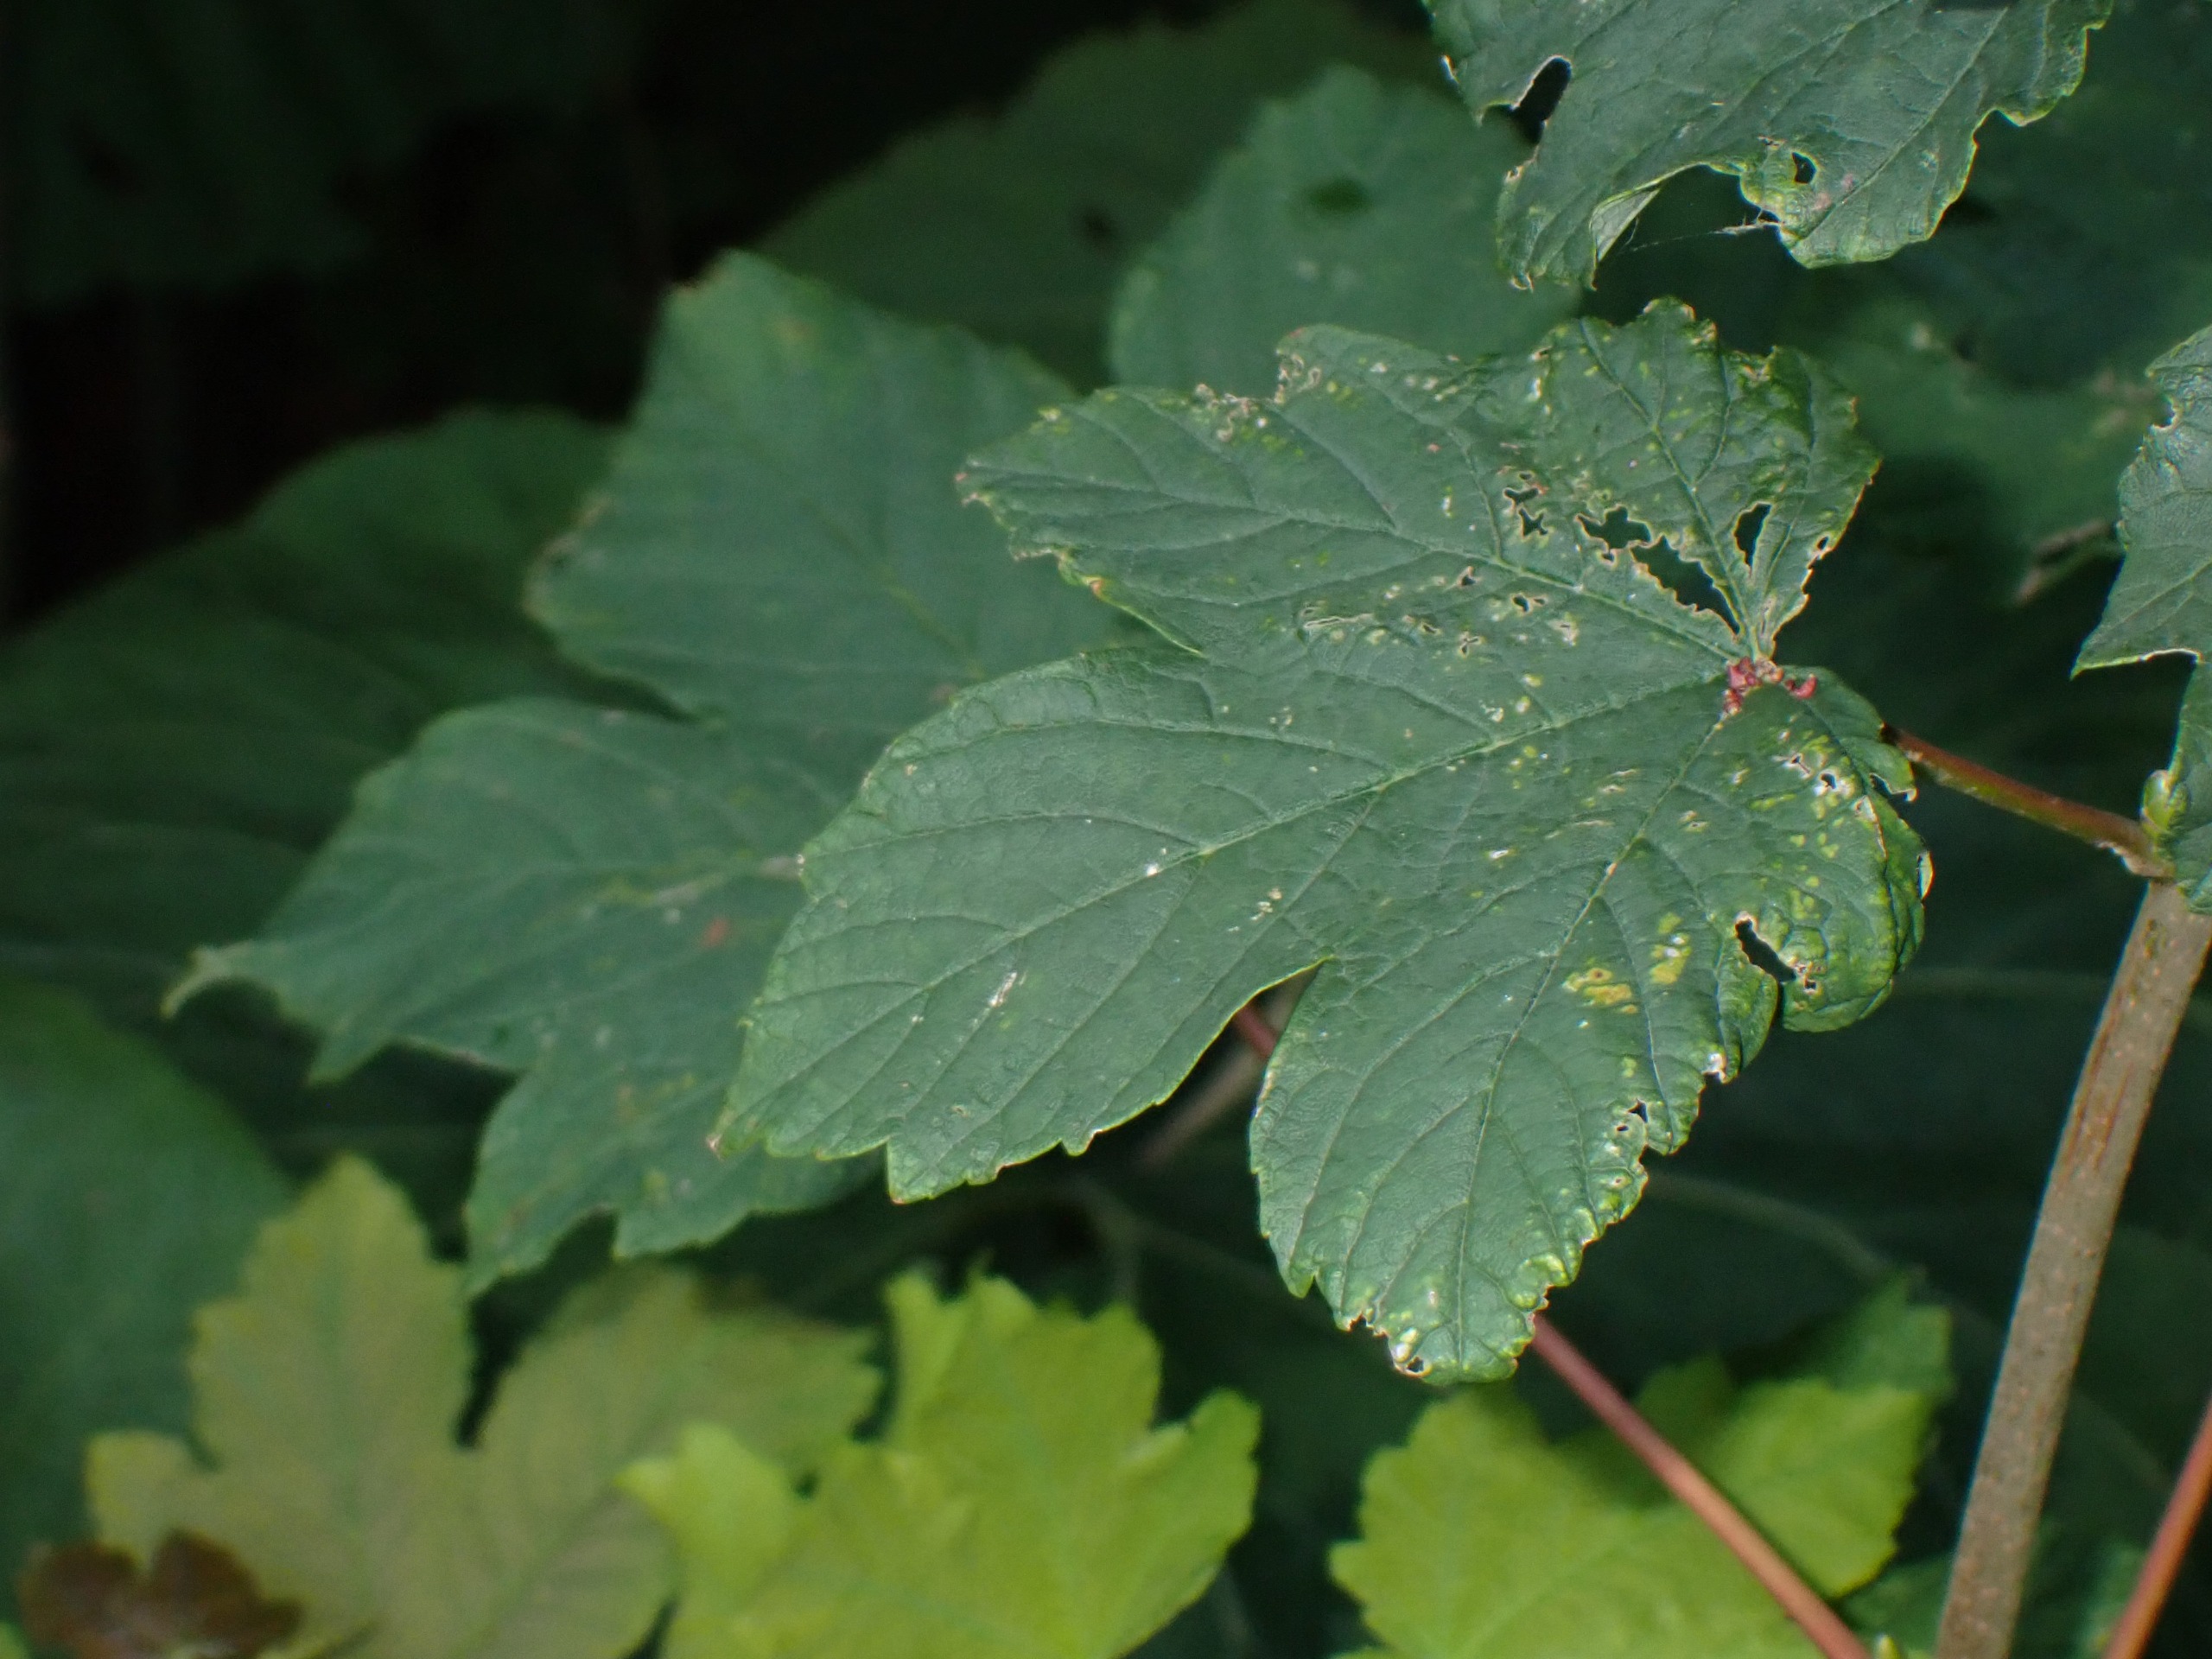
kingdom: Plantae
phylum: Tracheophyta
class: Magnoliopsida
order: Sapindales
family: Sapindaceae
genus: Acer
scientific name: Acer pseudoplatanus
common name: Ahorn
